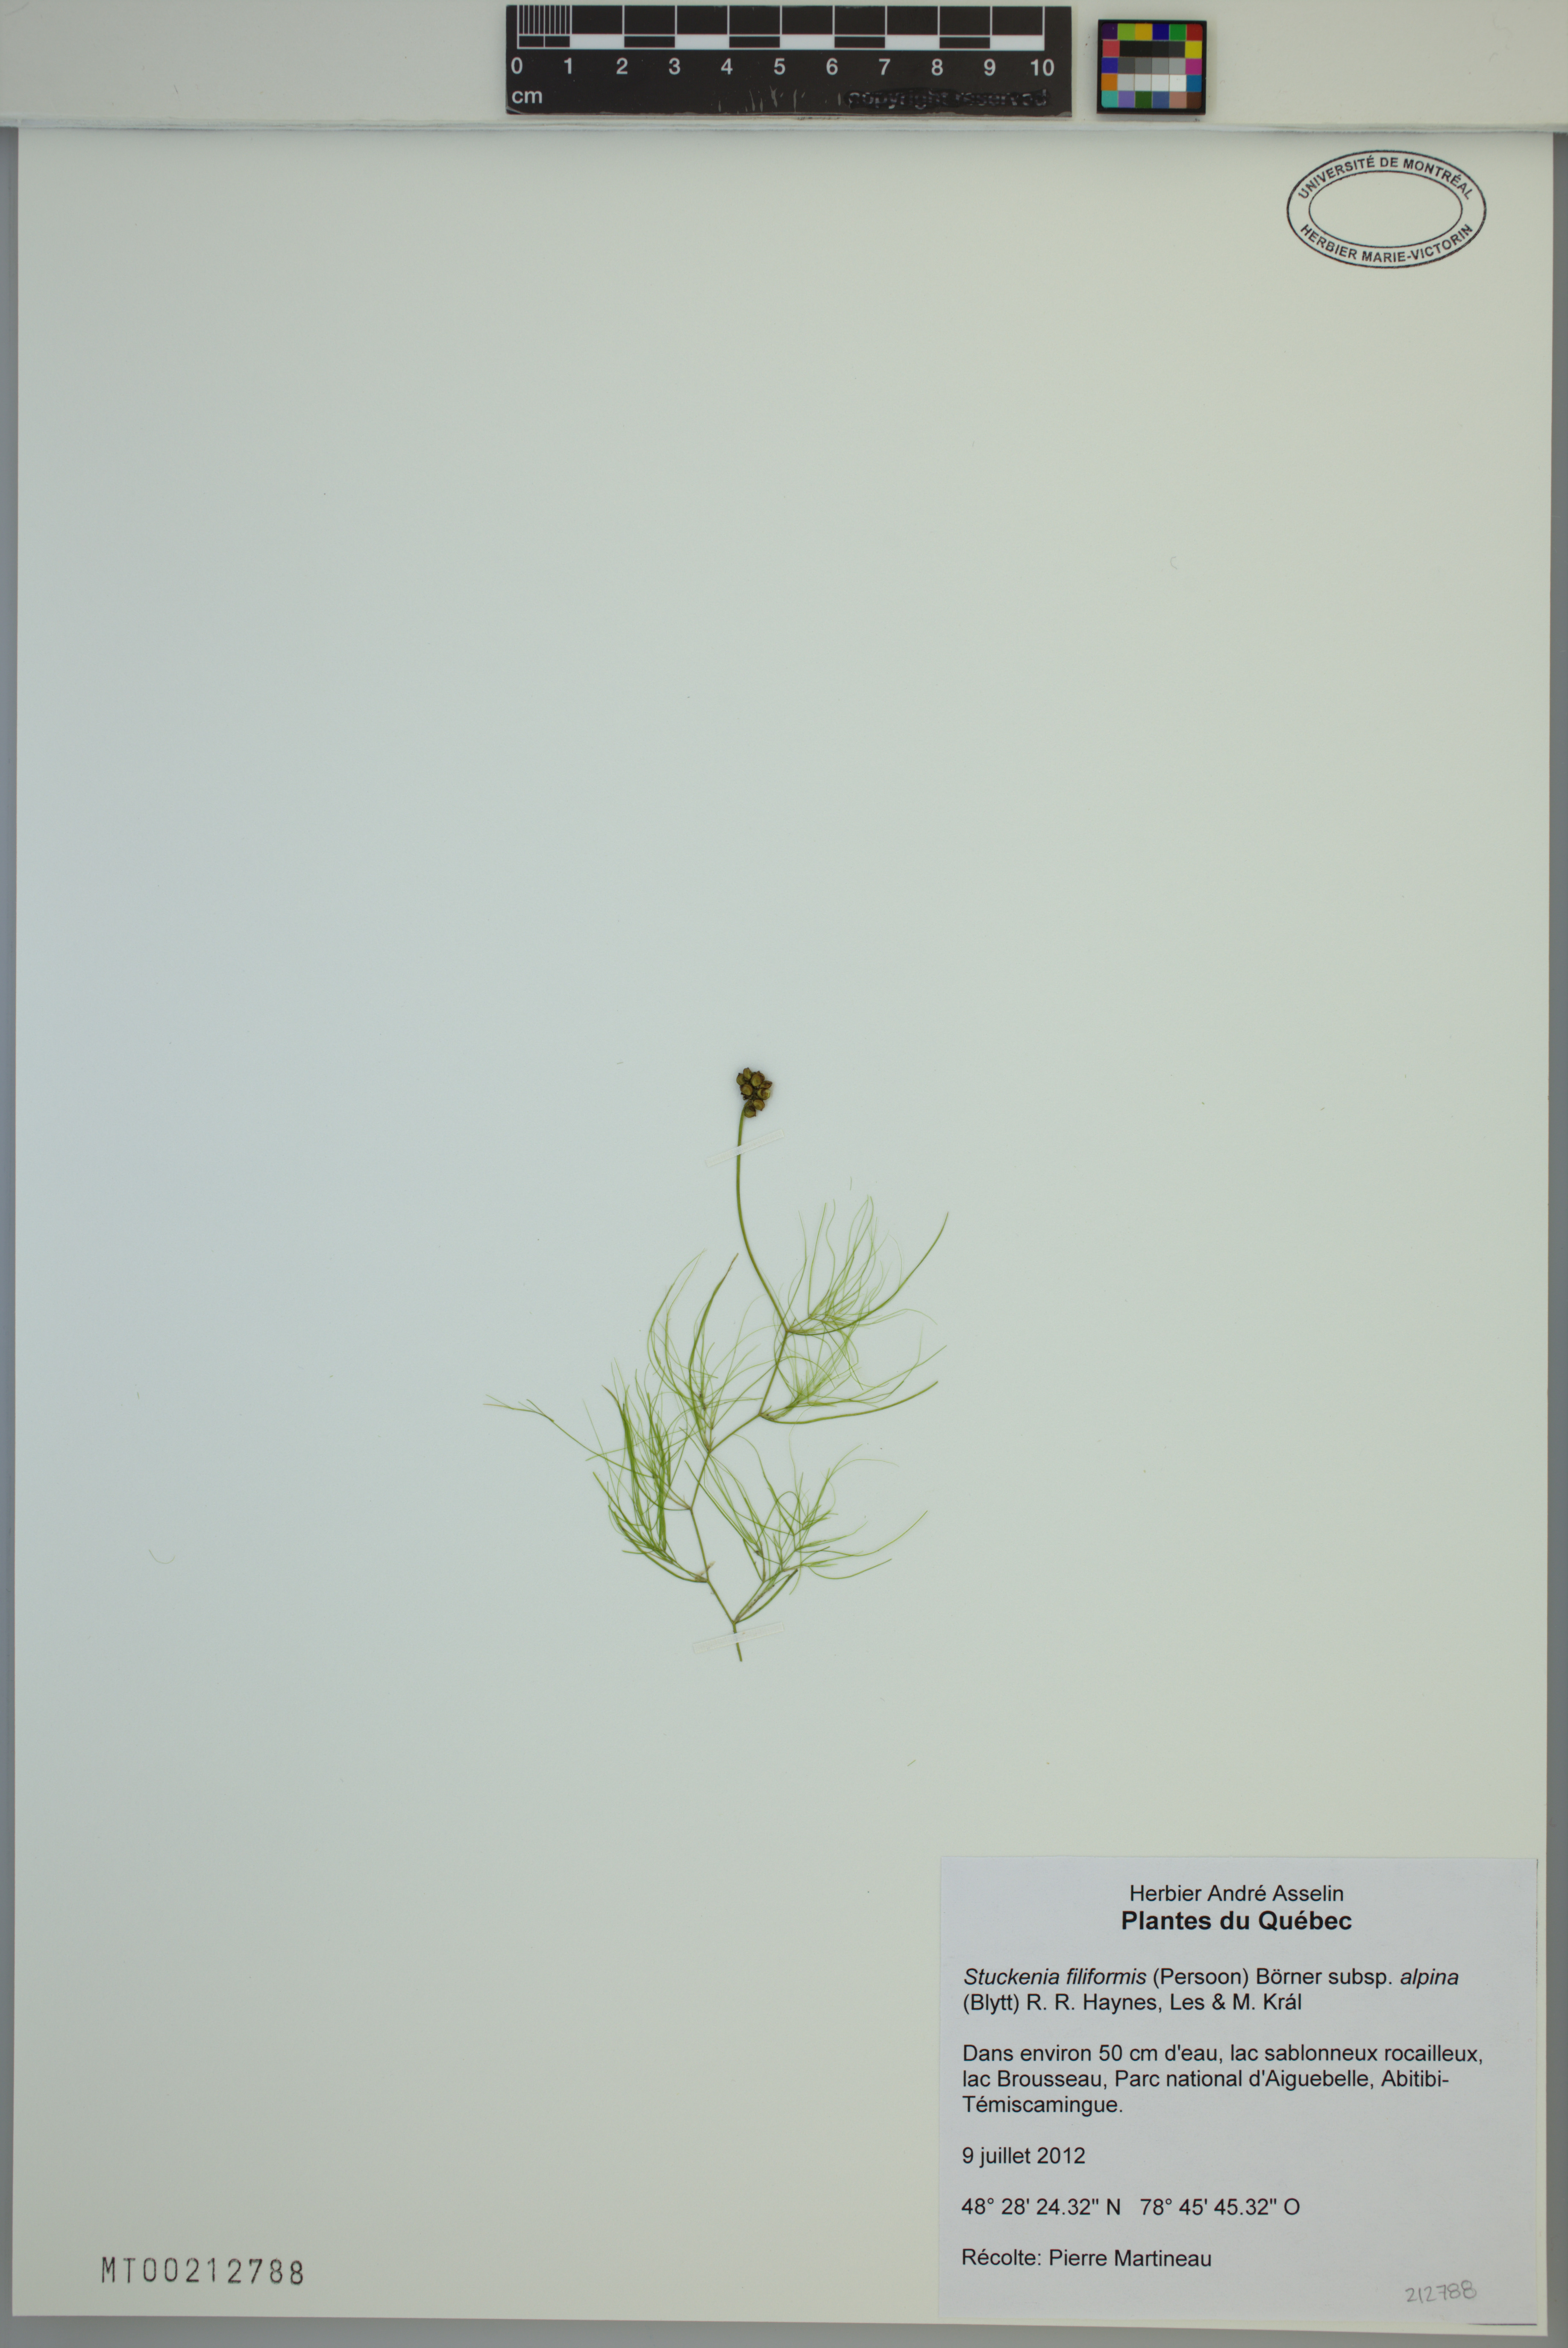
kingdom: Plantae
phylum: Tracheophyta
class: Liliopsida
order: Alismatales
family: Potamogetonaceae
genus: Stuckenia
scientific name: Stuckenia filiformis
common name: Alpine thread-leaved pondweed
